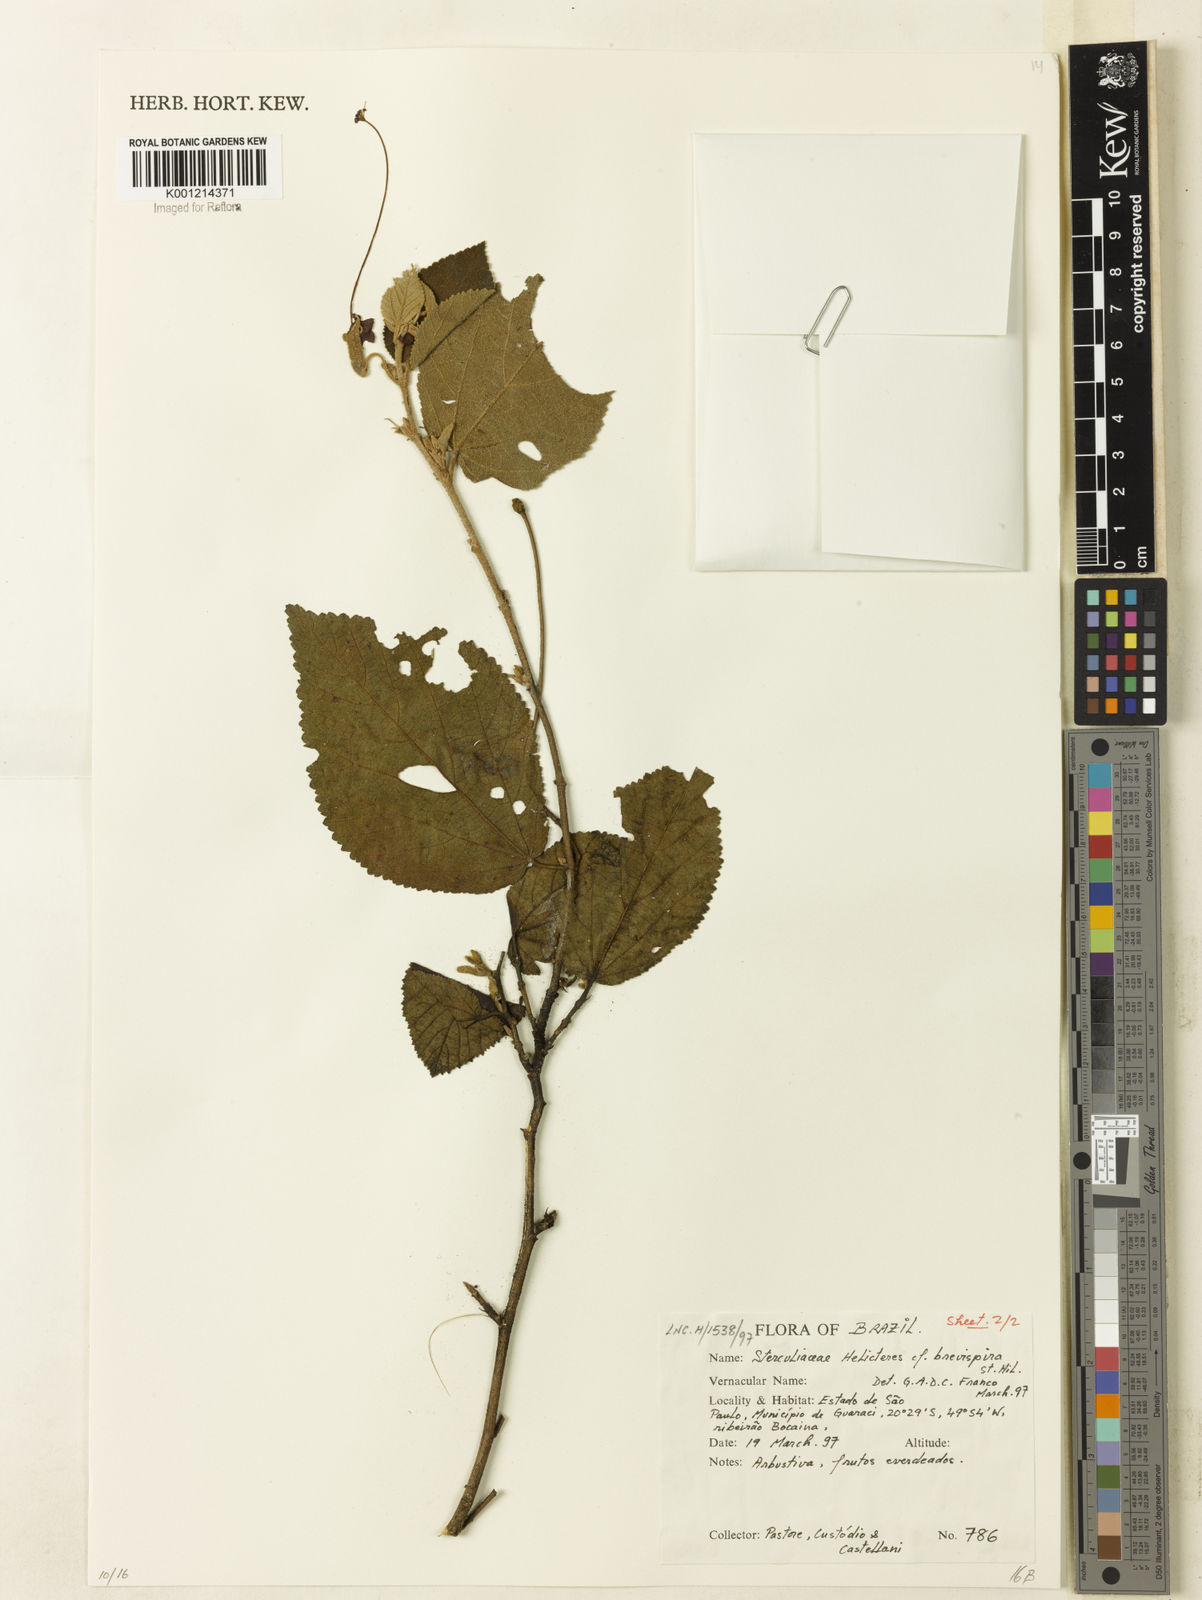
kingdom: Plantae
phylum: Tracheophyta
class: Magnoliopsida
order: Malvales
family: Malvaceae
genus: Helicteres
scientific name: Helicteres
